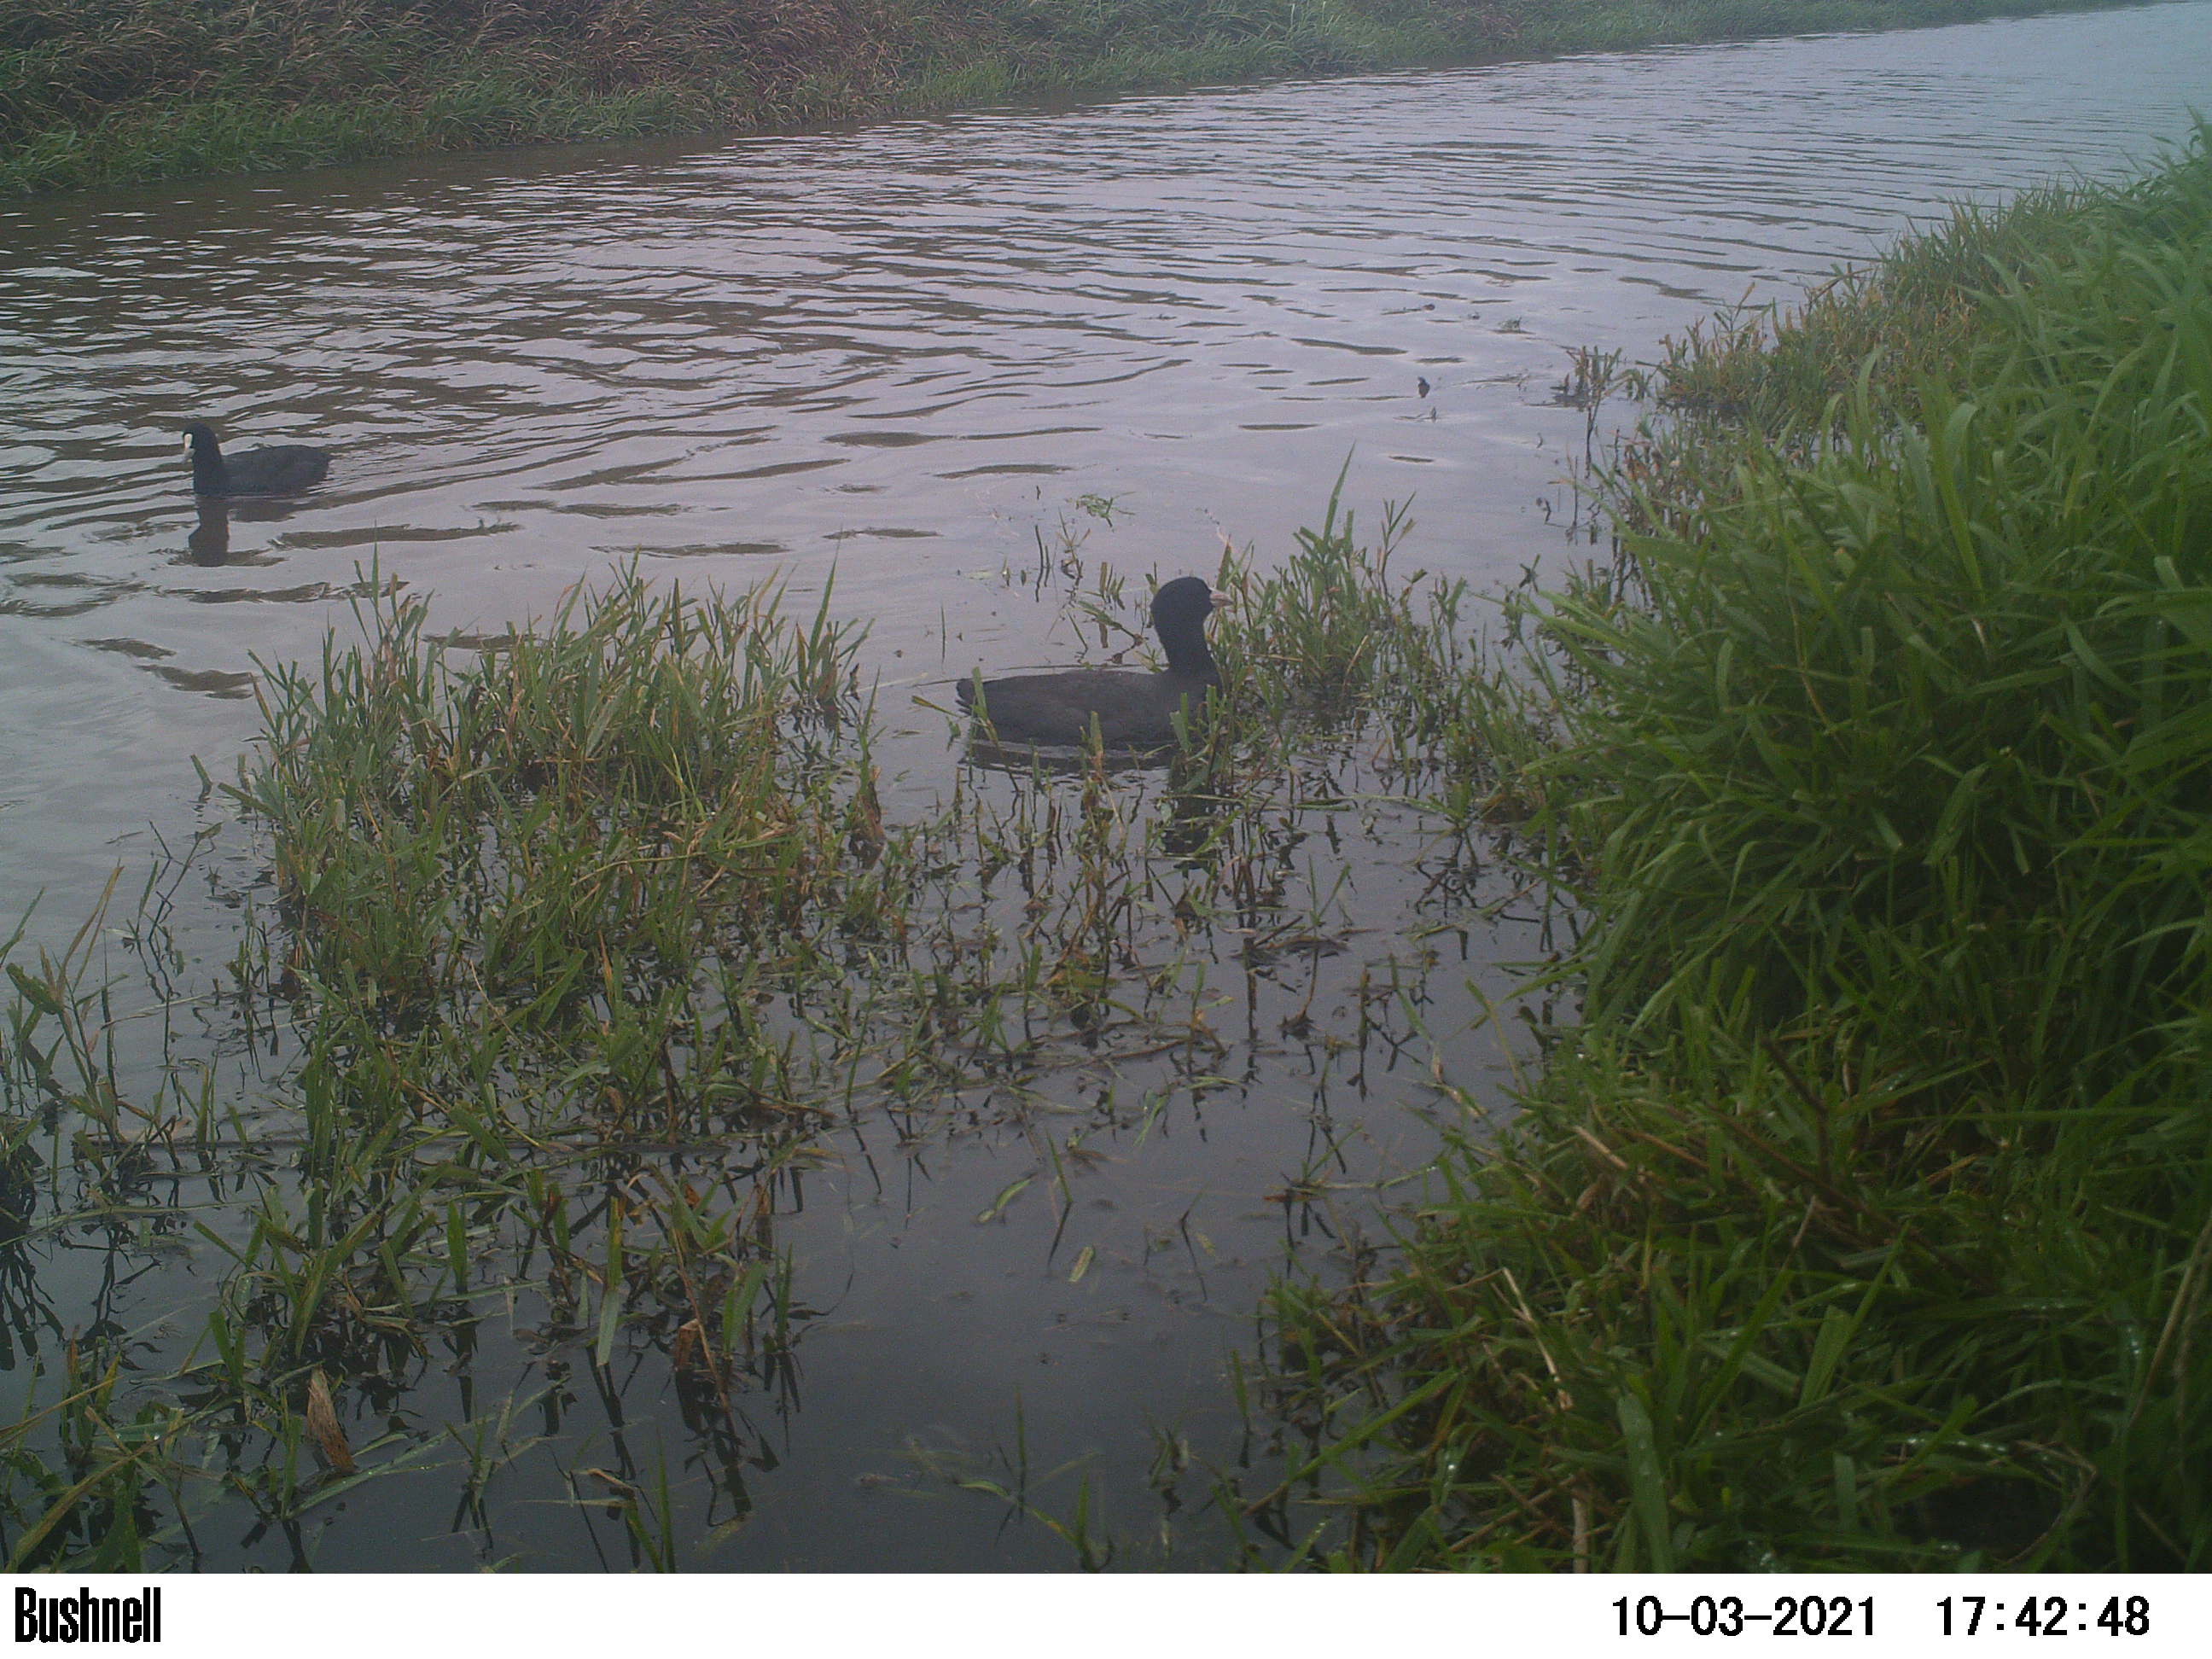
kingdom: Animalia
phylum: Chordata
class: Aves
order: Gruiformes
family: Rallidae
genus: Fulica
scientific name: Fulica atra
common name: Eurasian coot
